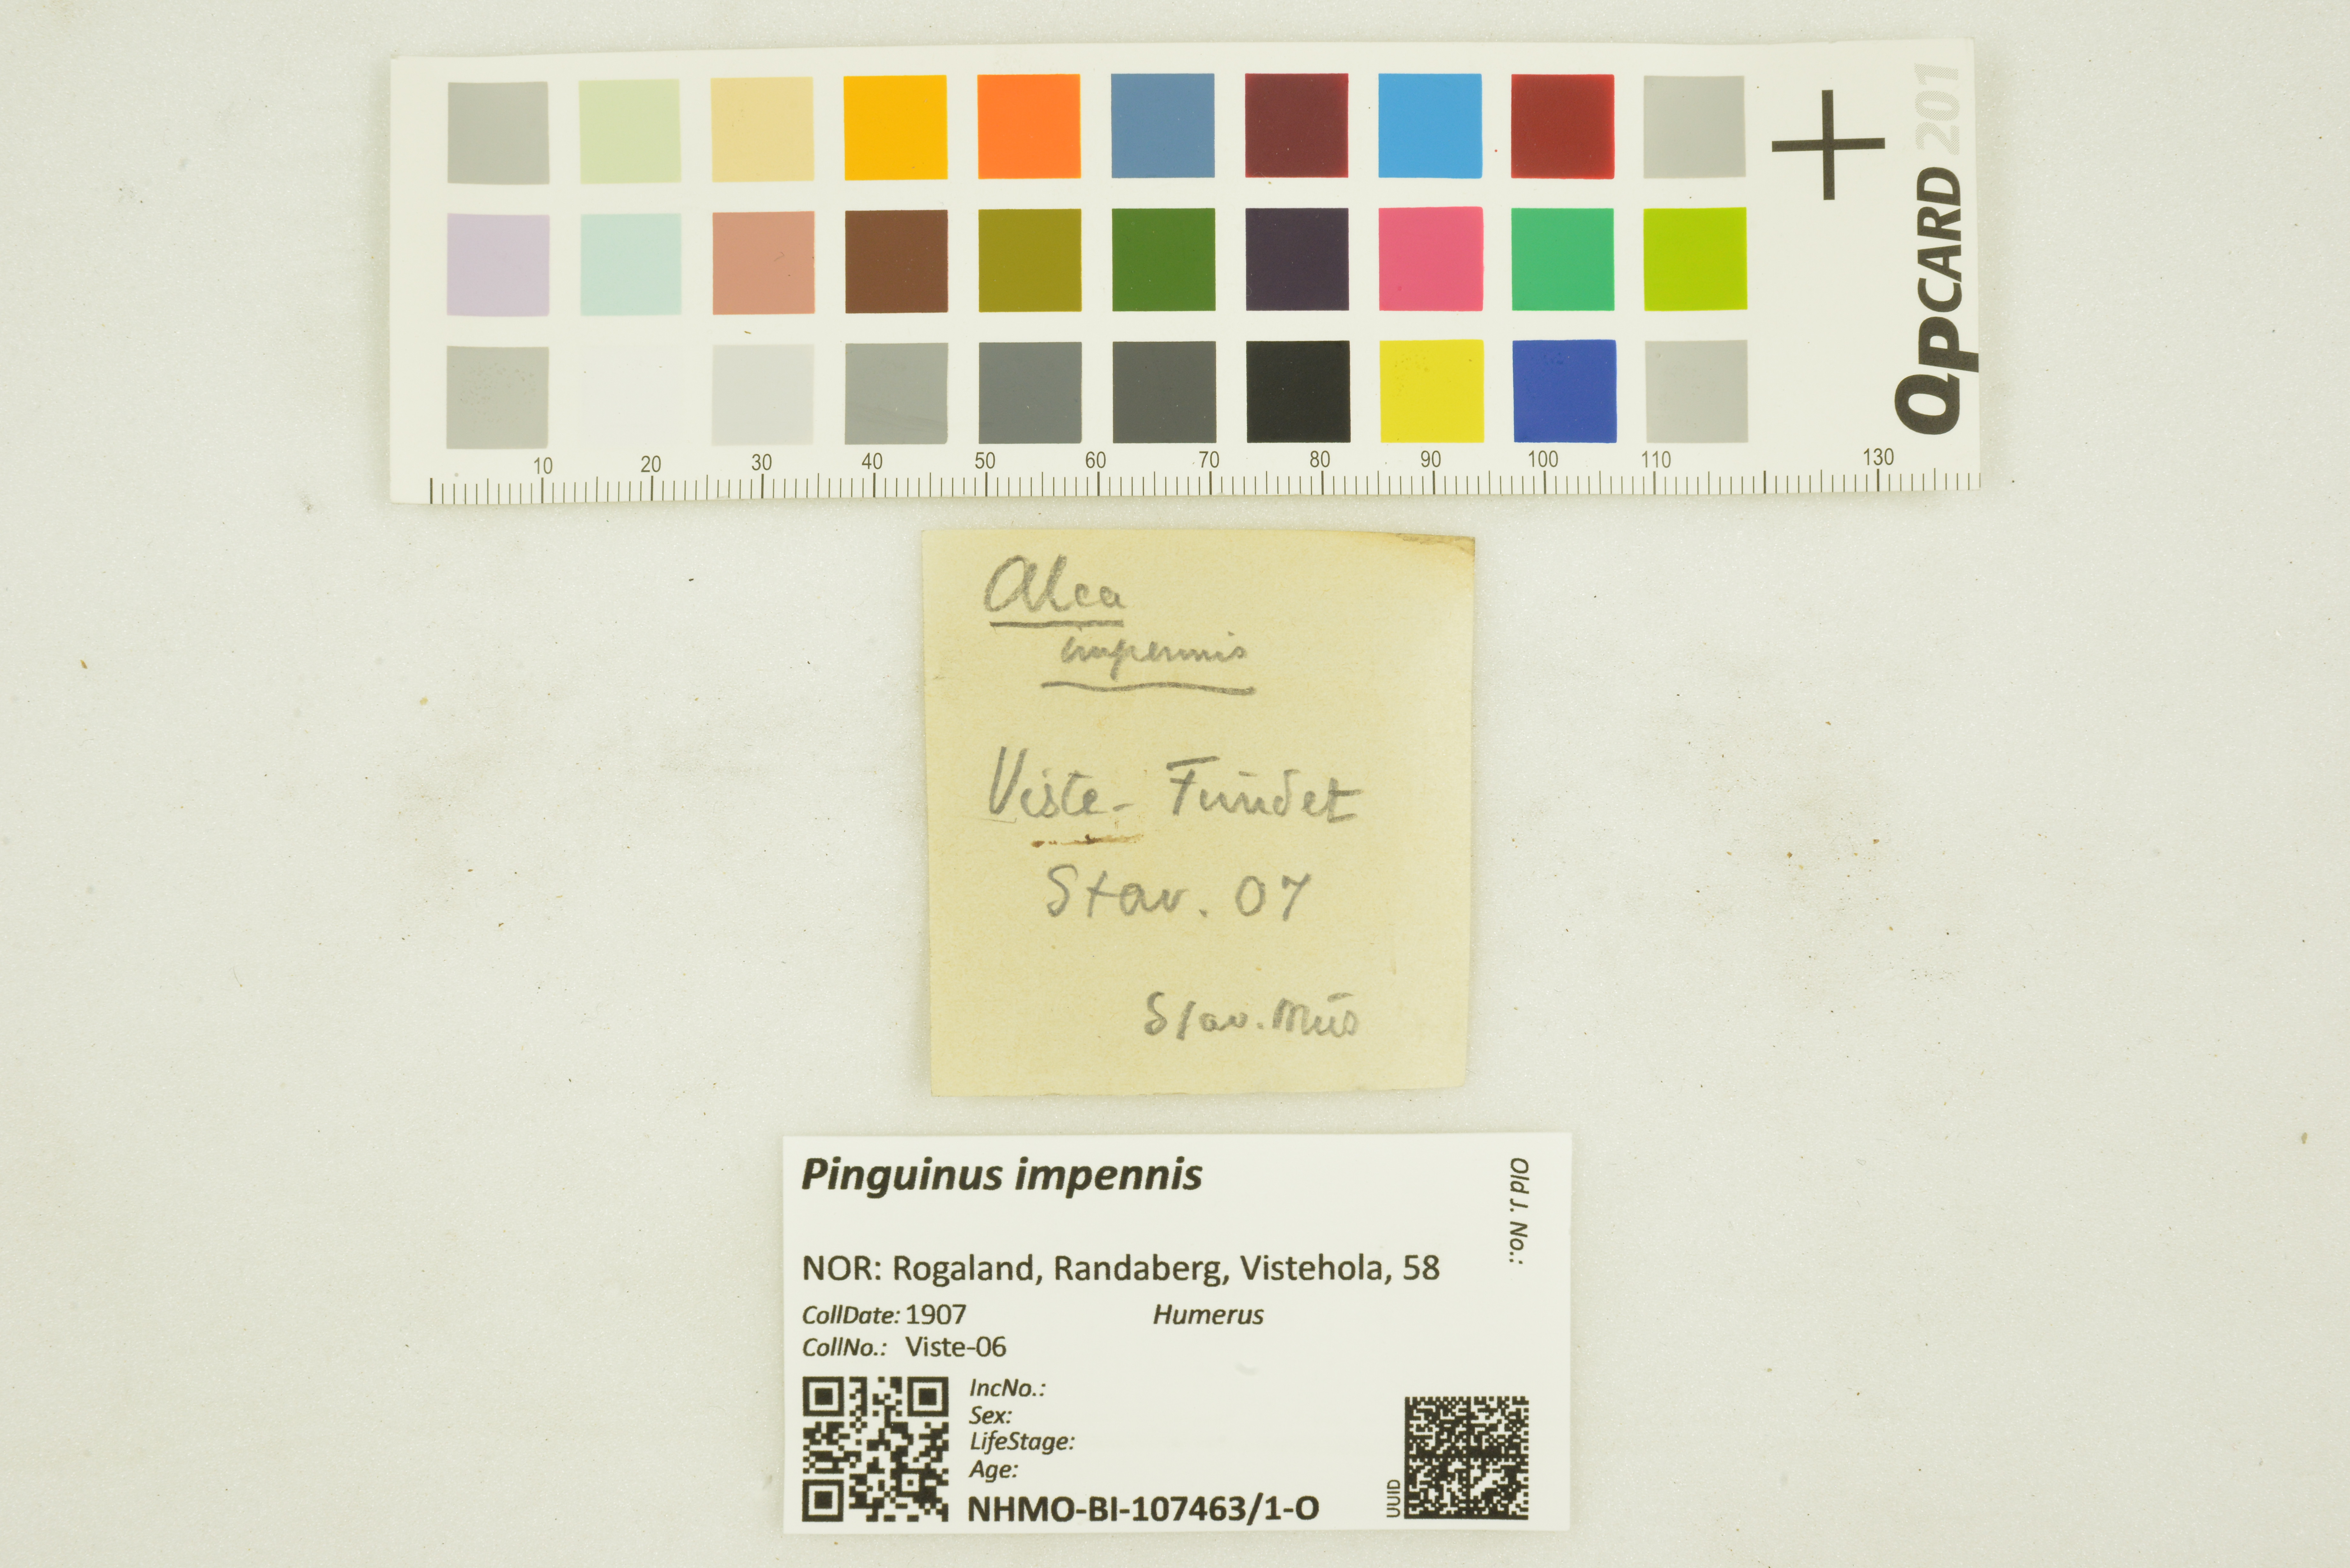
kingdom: Animalia
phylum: Chordata
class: Aves
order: Charadriiformes
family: Alcidae
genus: Pinguinus
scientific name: Pinguinus impennis
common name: Great auk
